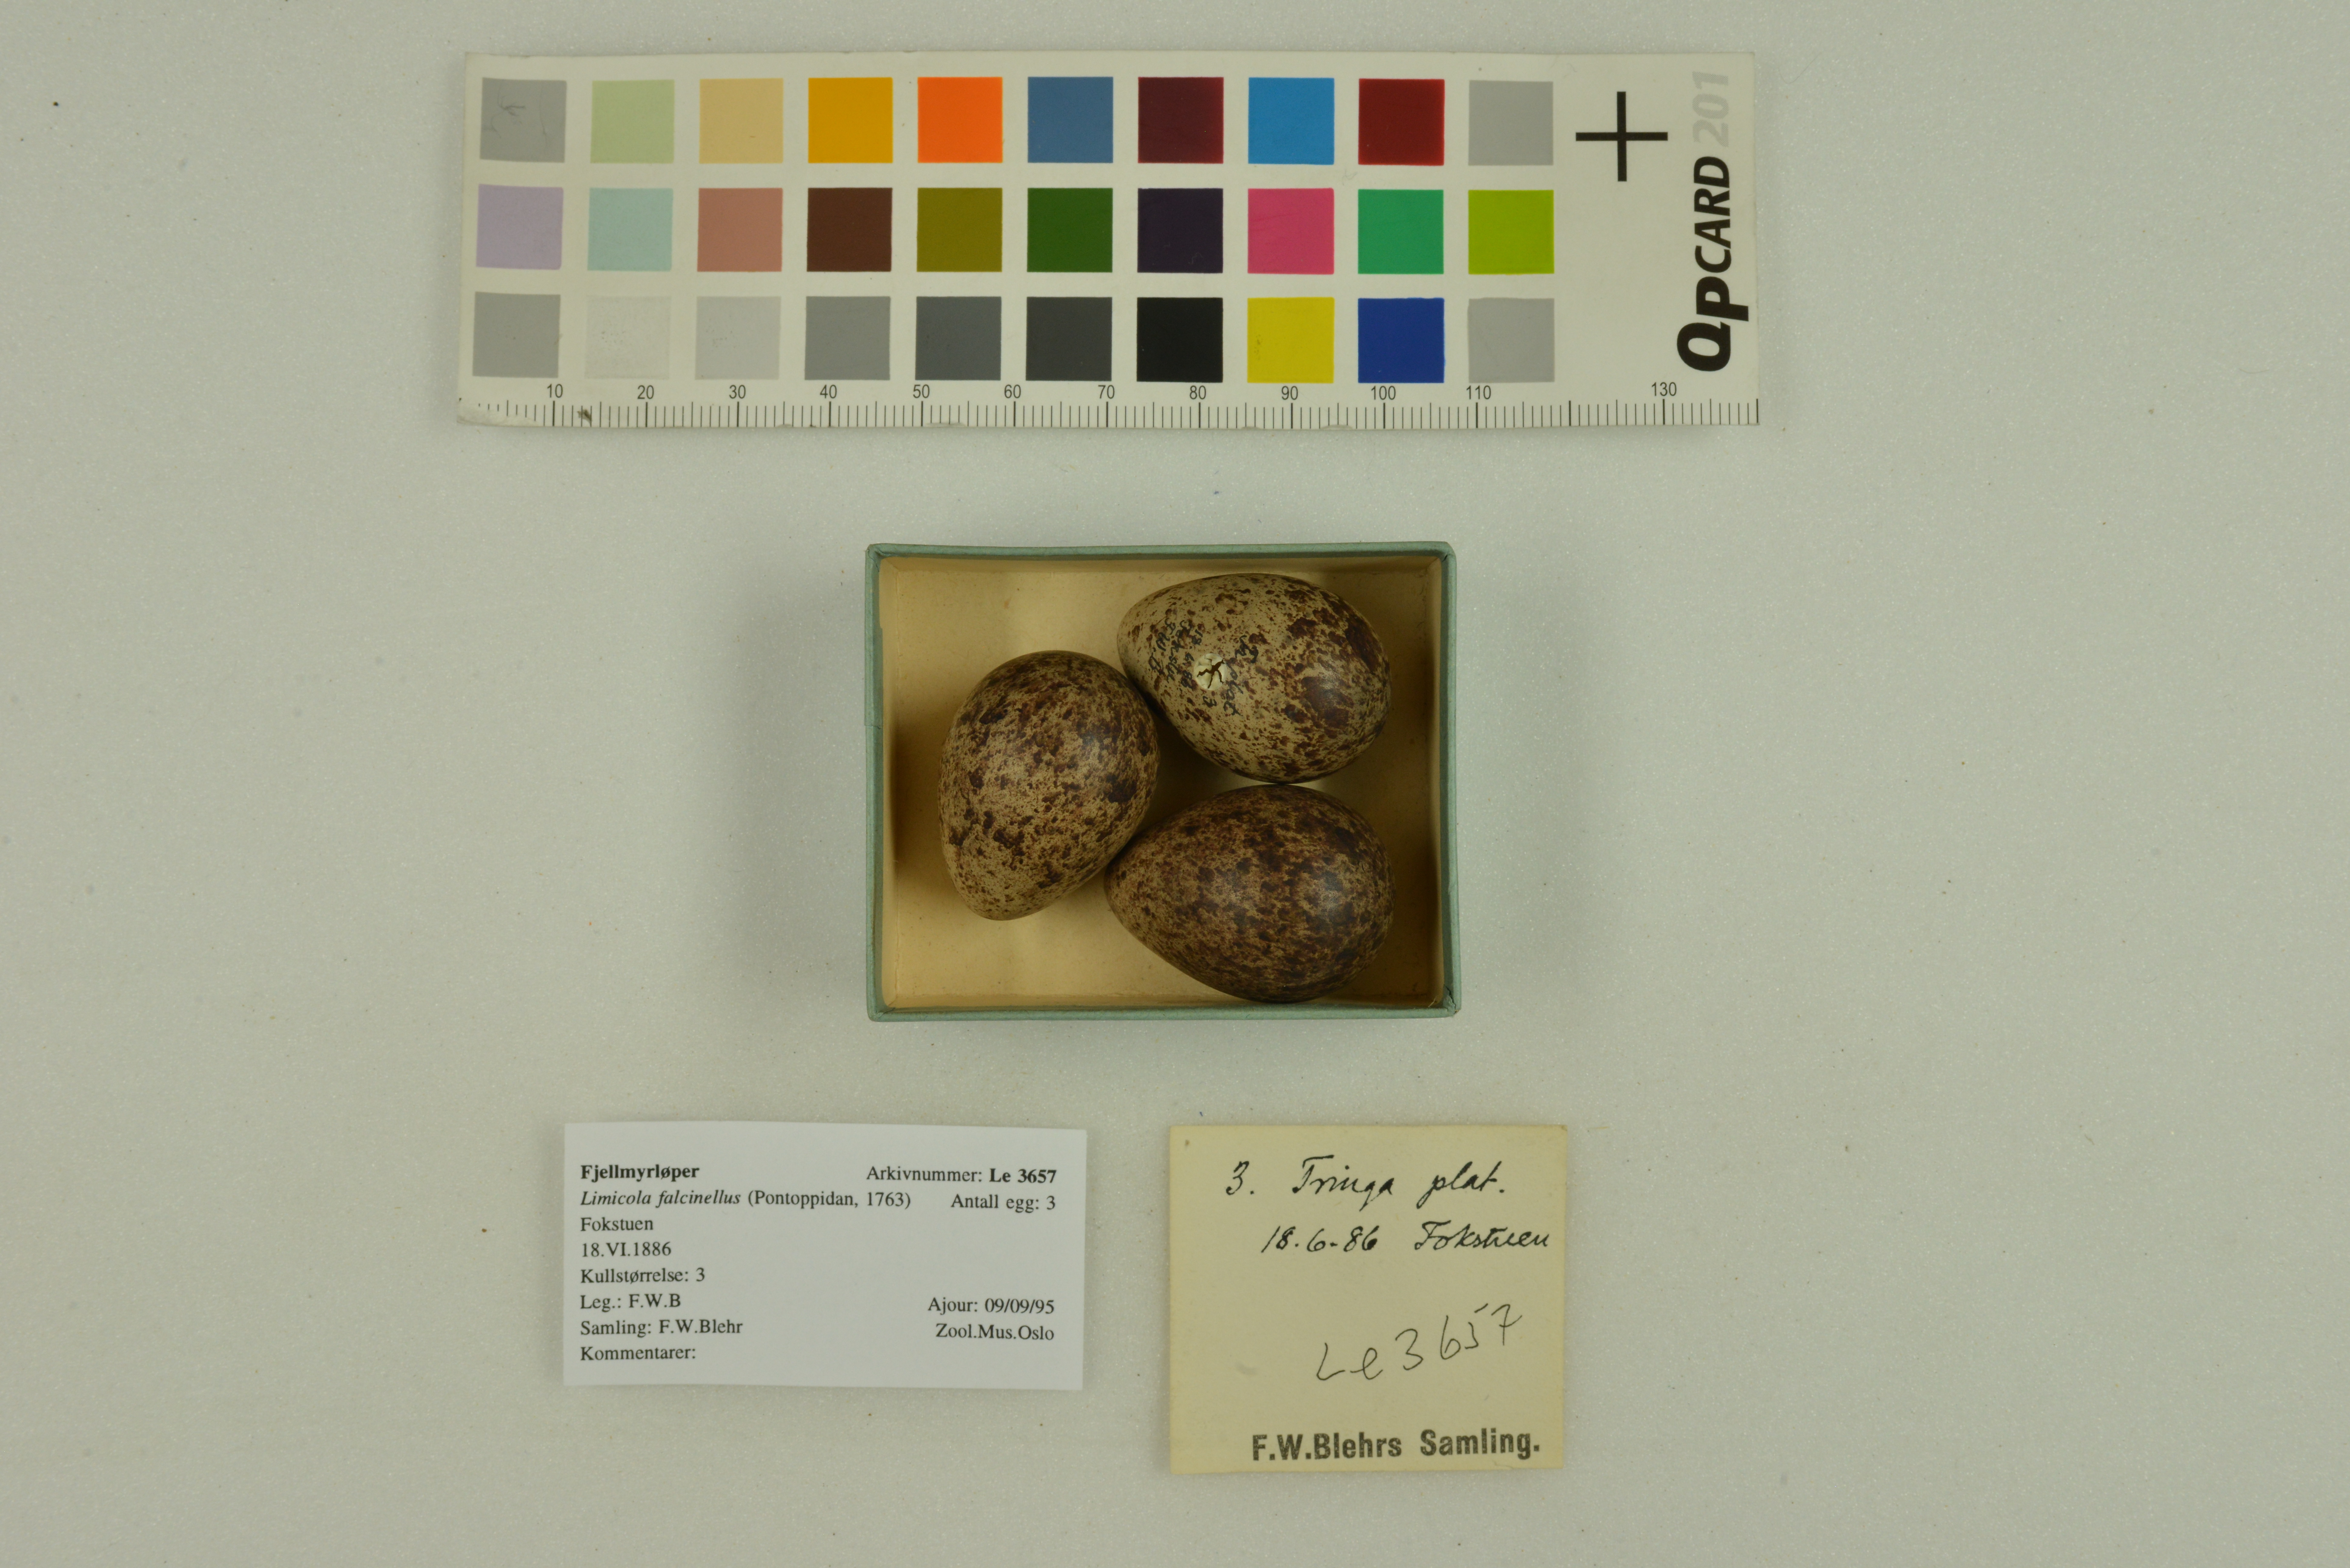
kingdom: Animalia
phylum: Chordata
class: Aves
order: Charadriiformes
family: Scolopacidae
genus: Calidris
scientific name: Calidris falcinellus
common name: Broad-billed sandpiper
